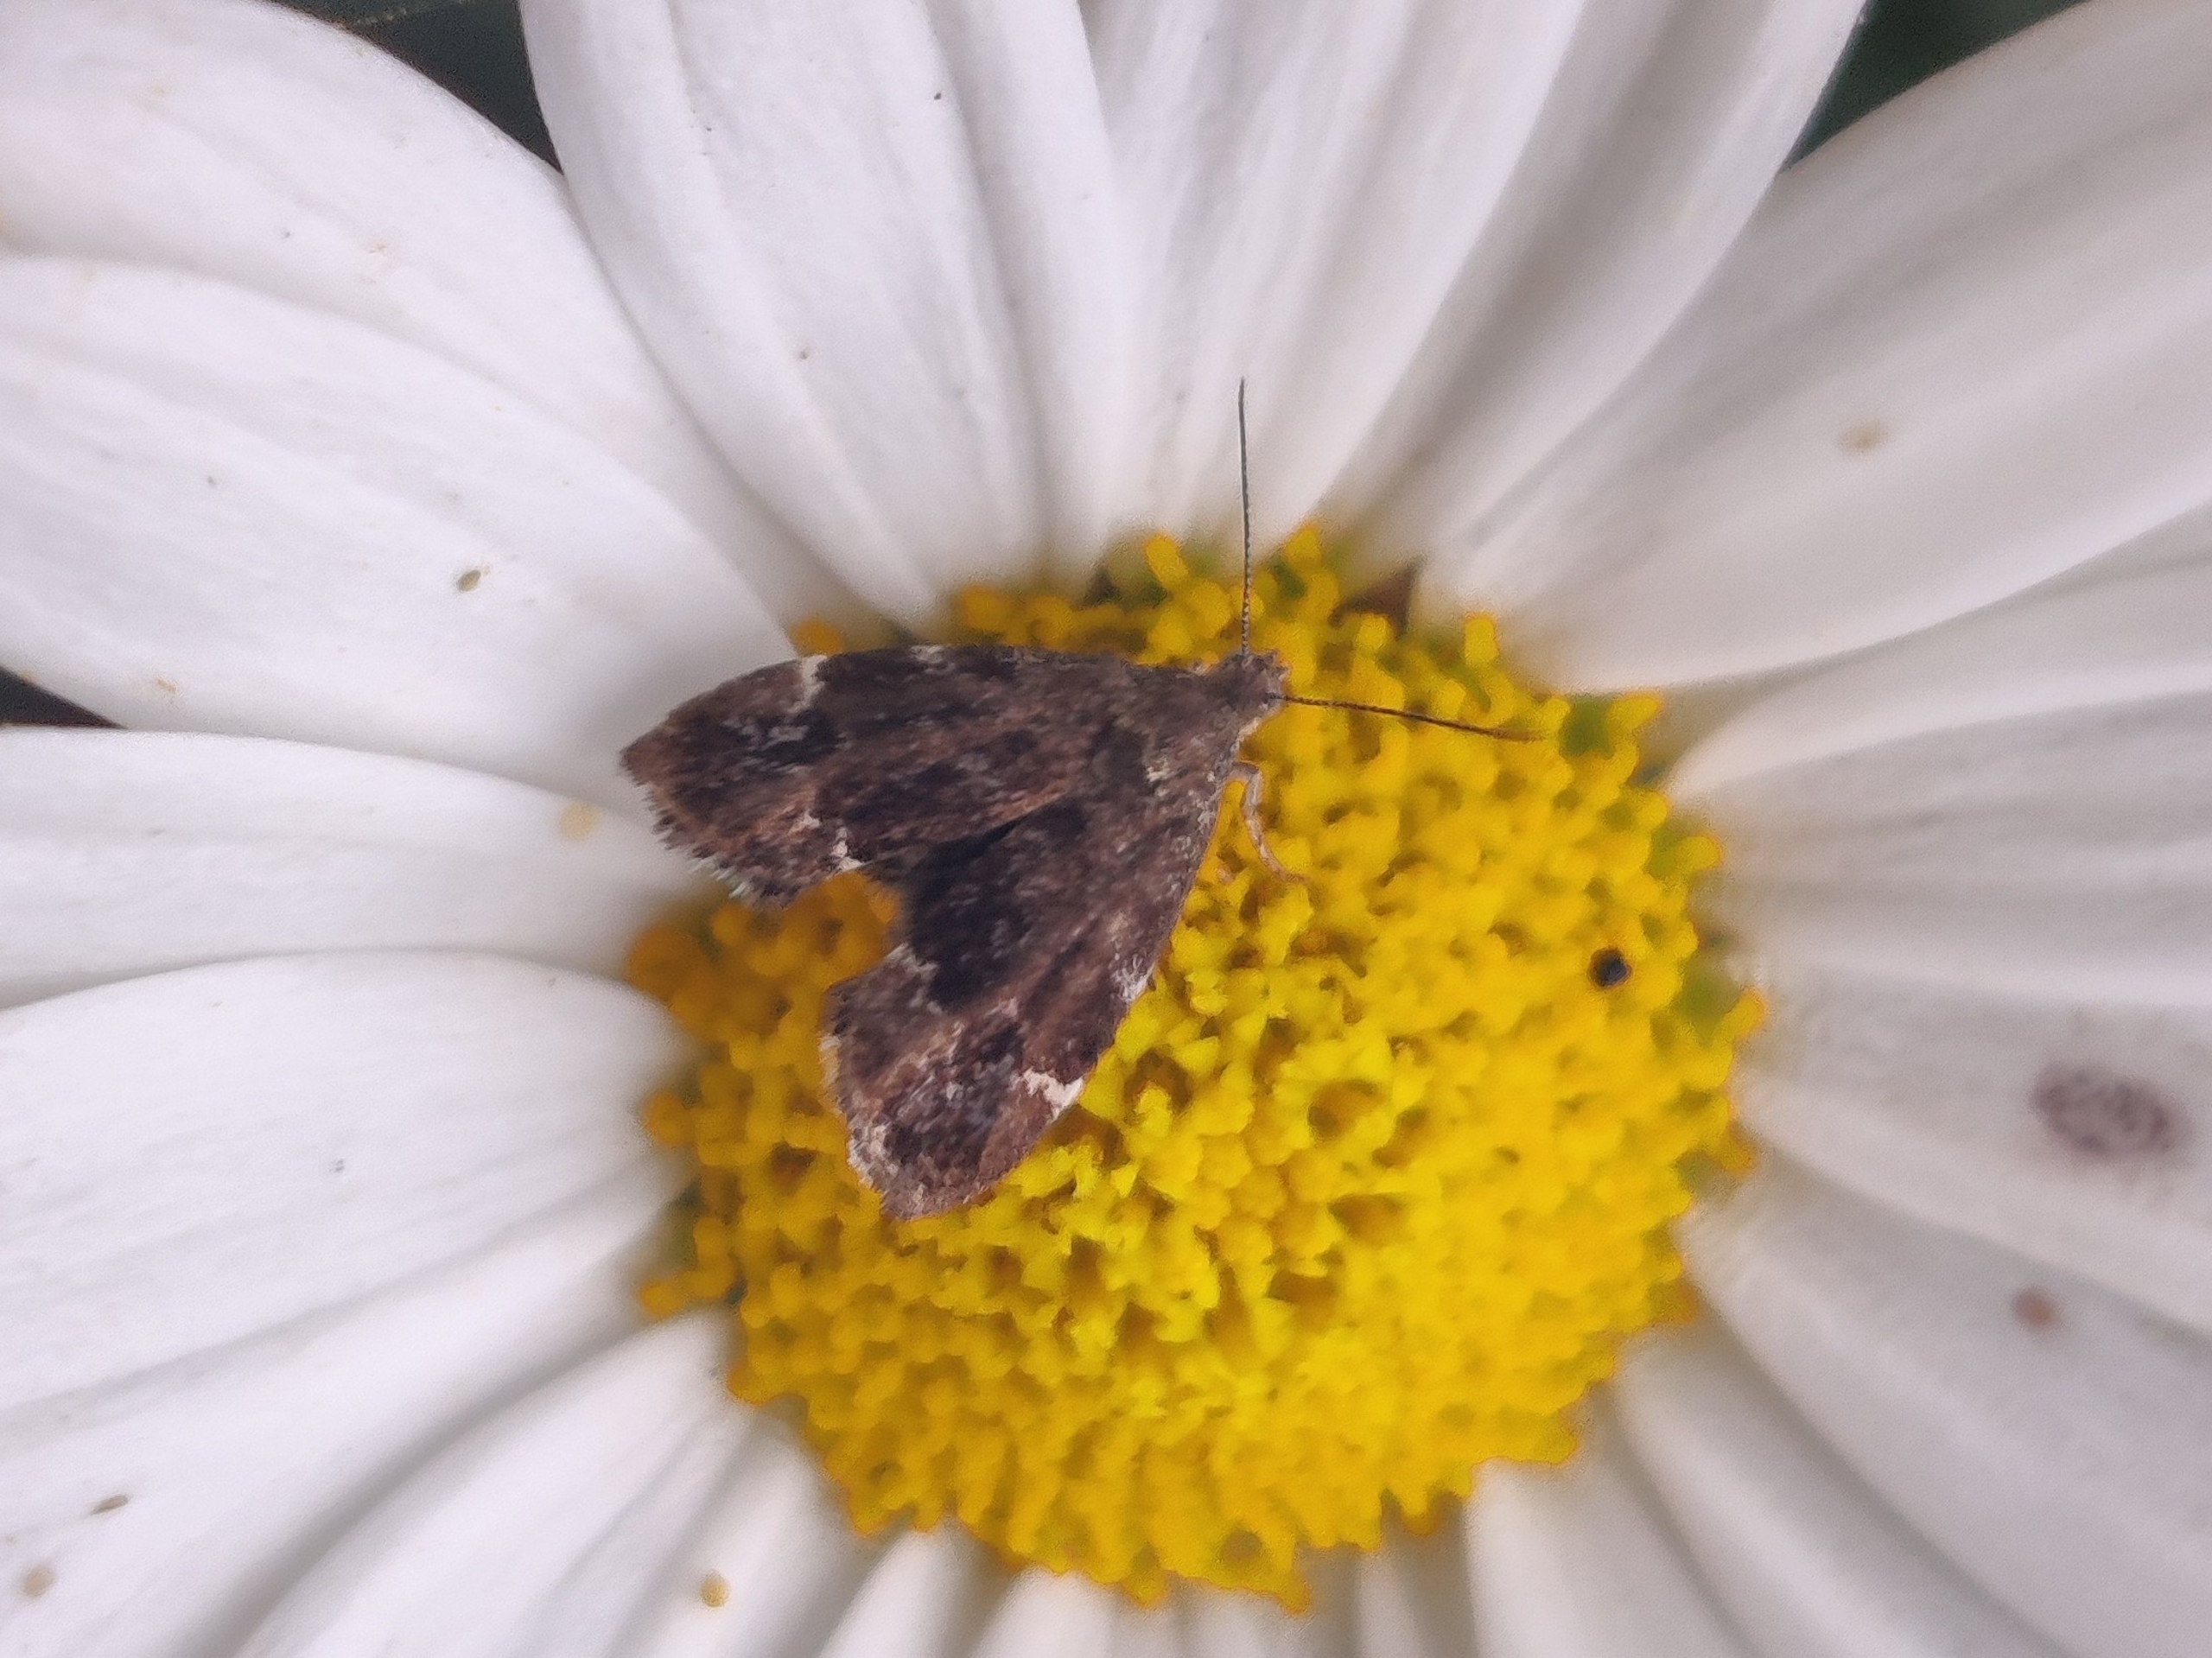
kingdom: Animalia
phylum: Arthropoda
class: Insecta
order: Lepidoptera
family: Choreutidae
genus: Anthophila
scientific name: Anthophila fabriciana
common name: Bredvinget nældevikler
